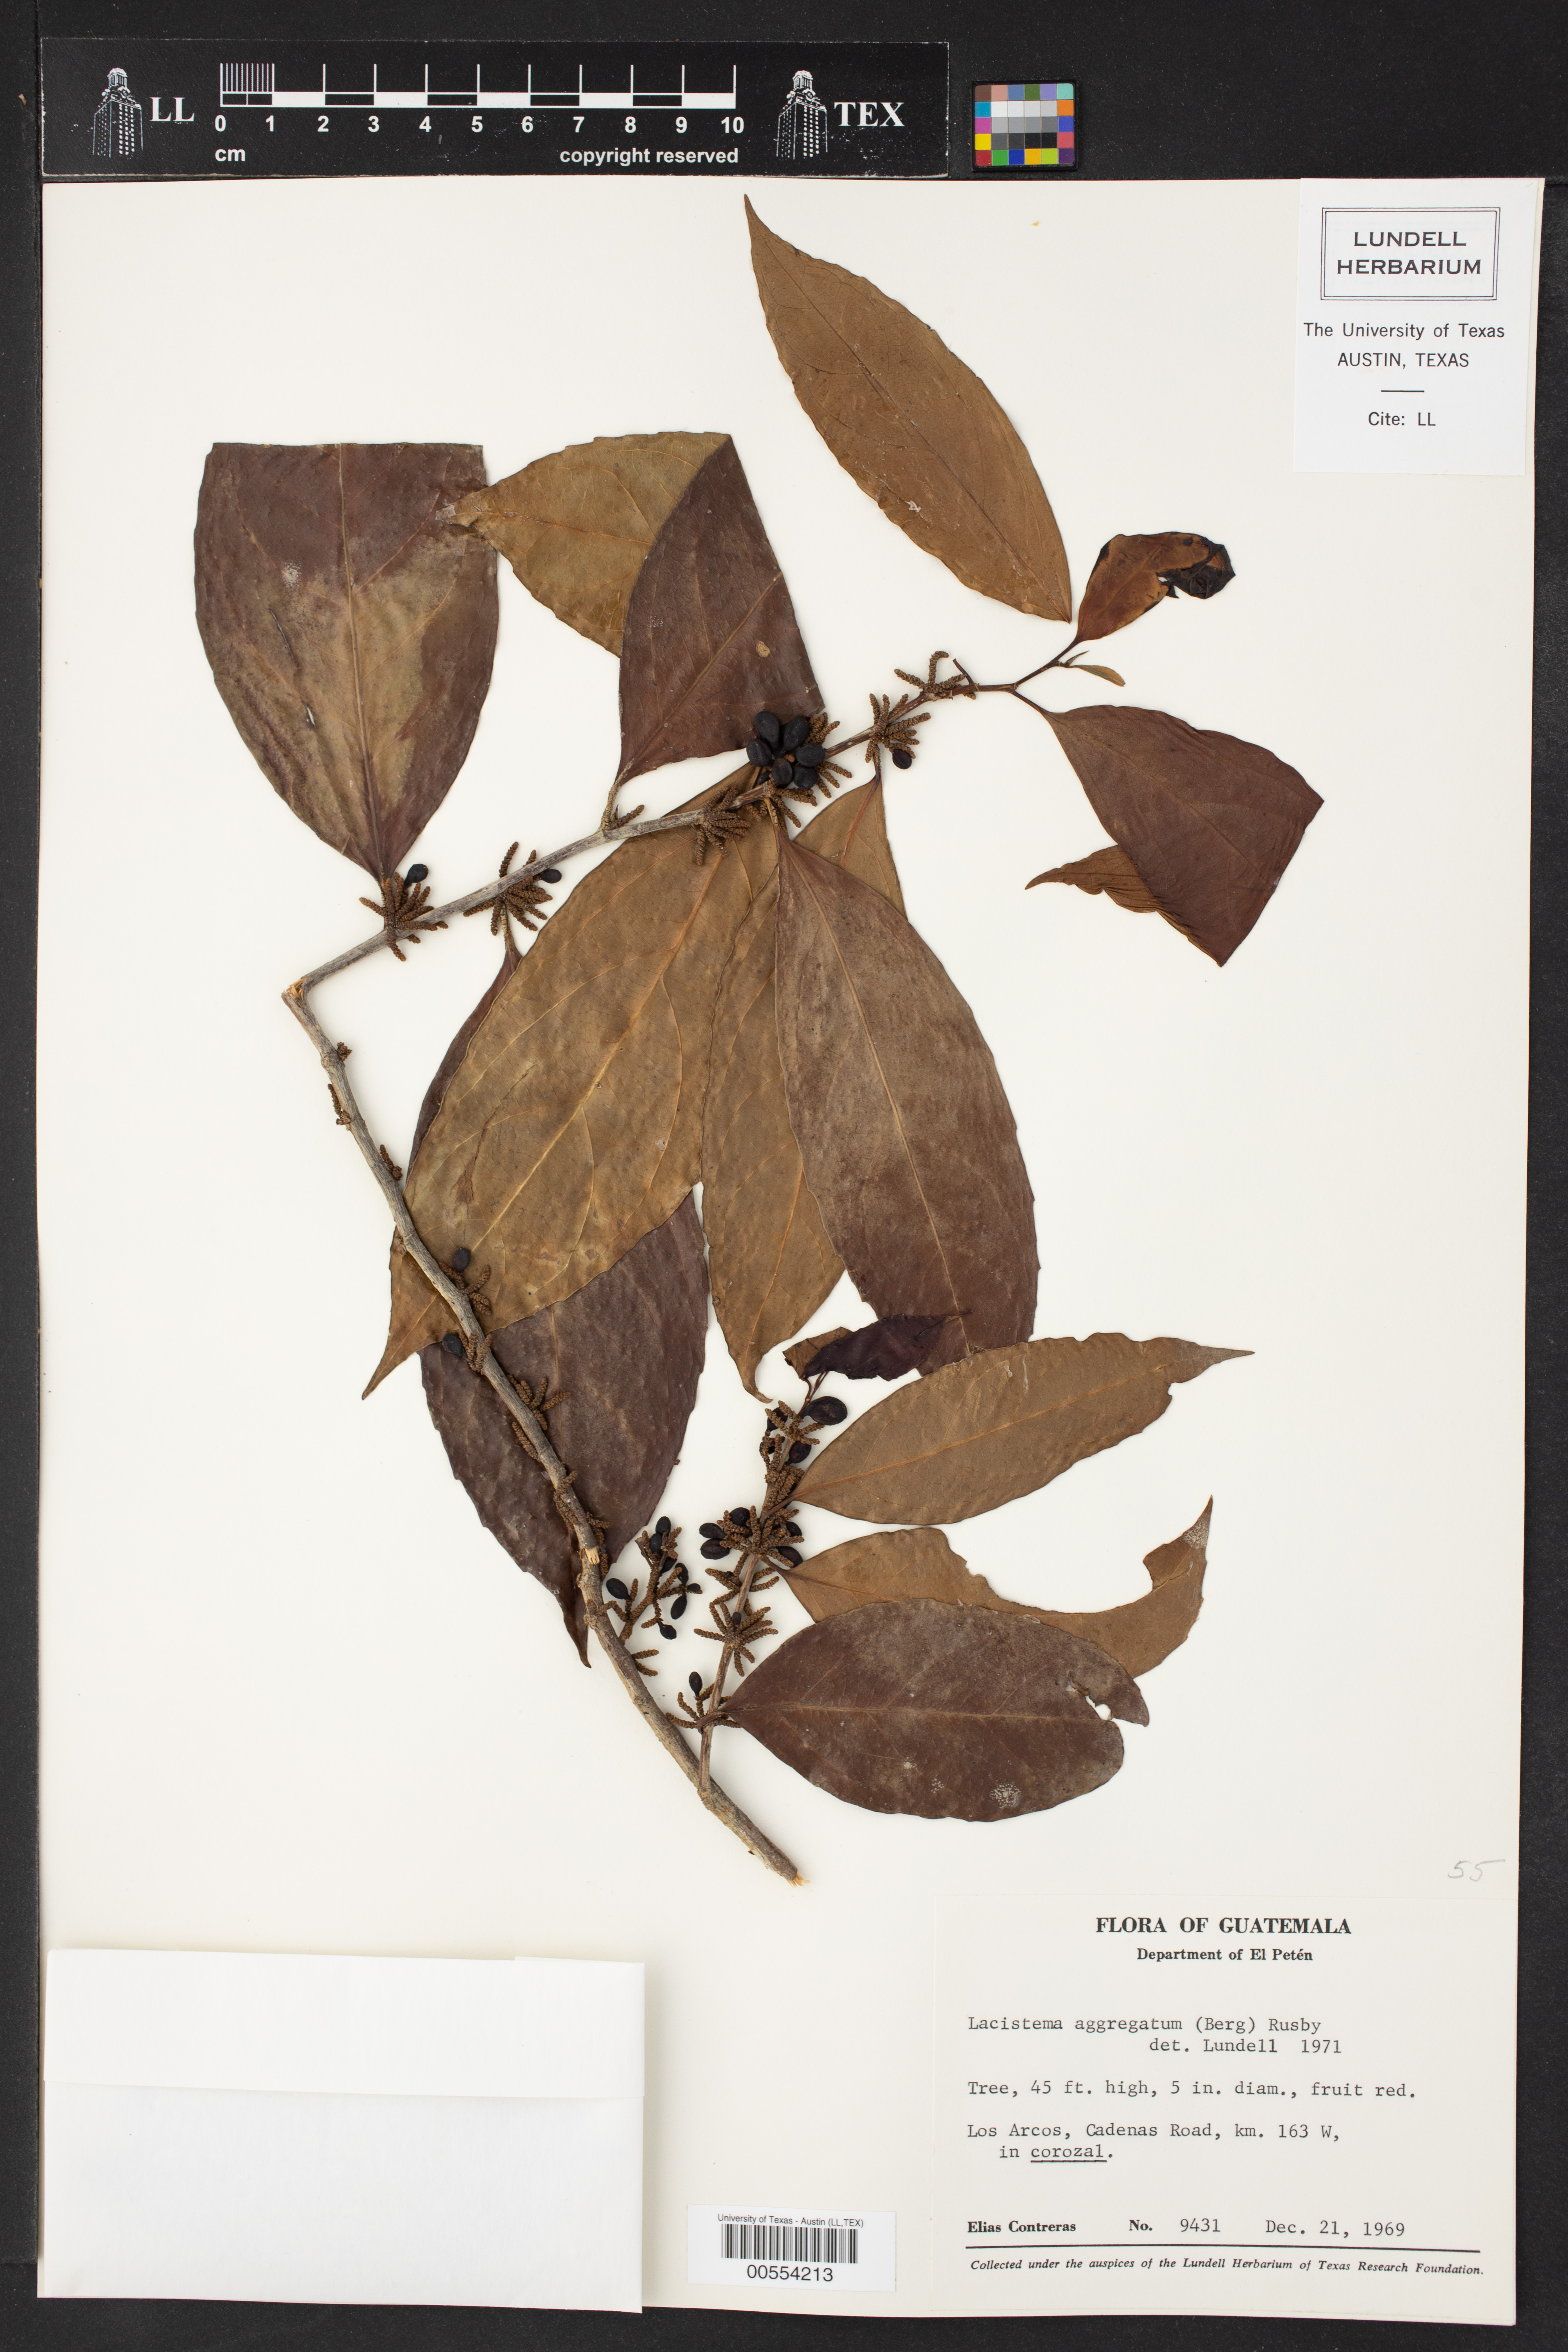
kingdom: Plantae
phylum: Tracheophyta
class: Magnoliopsida
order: Malpighiales
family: Lacistemataceae
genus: Lacistema
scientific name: Lacistema aggregatum
